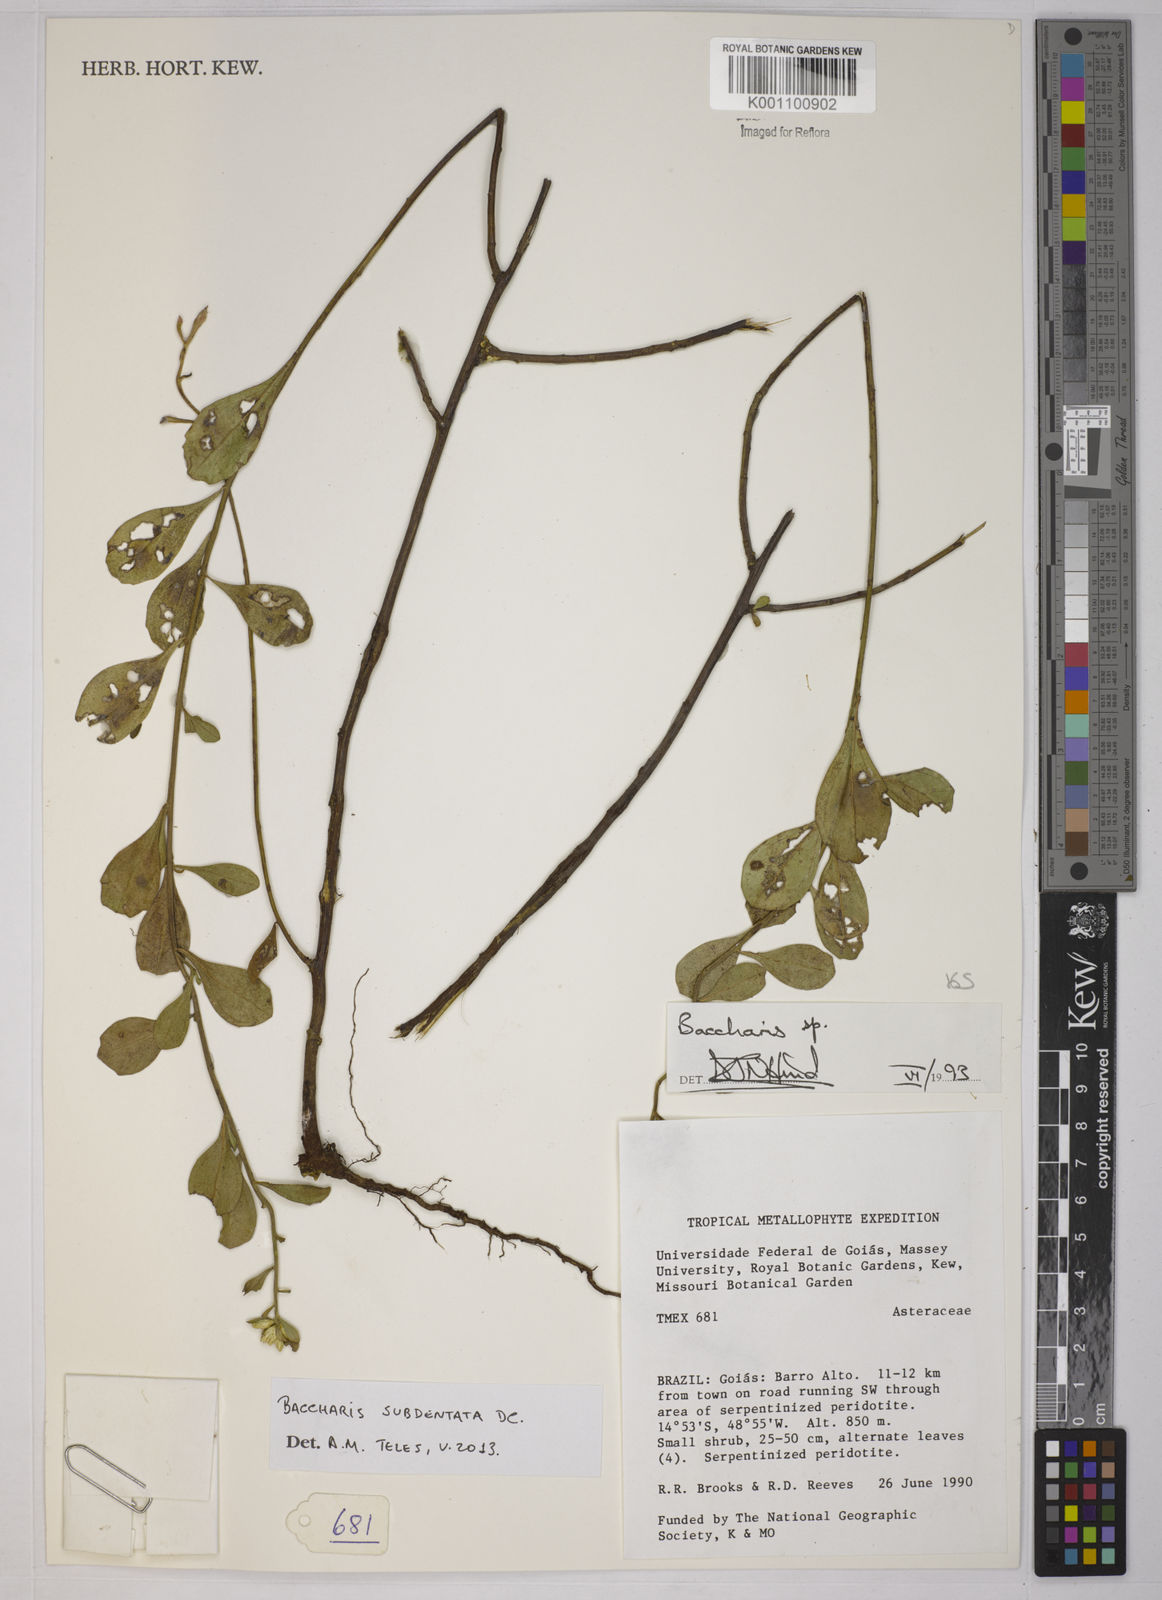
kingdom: Plantae
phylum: Tracheophyta
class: Magnoliopsida
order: Asterales
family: Asteraceae
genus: Baccharis
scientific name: Baccharis subdentata
